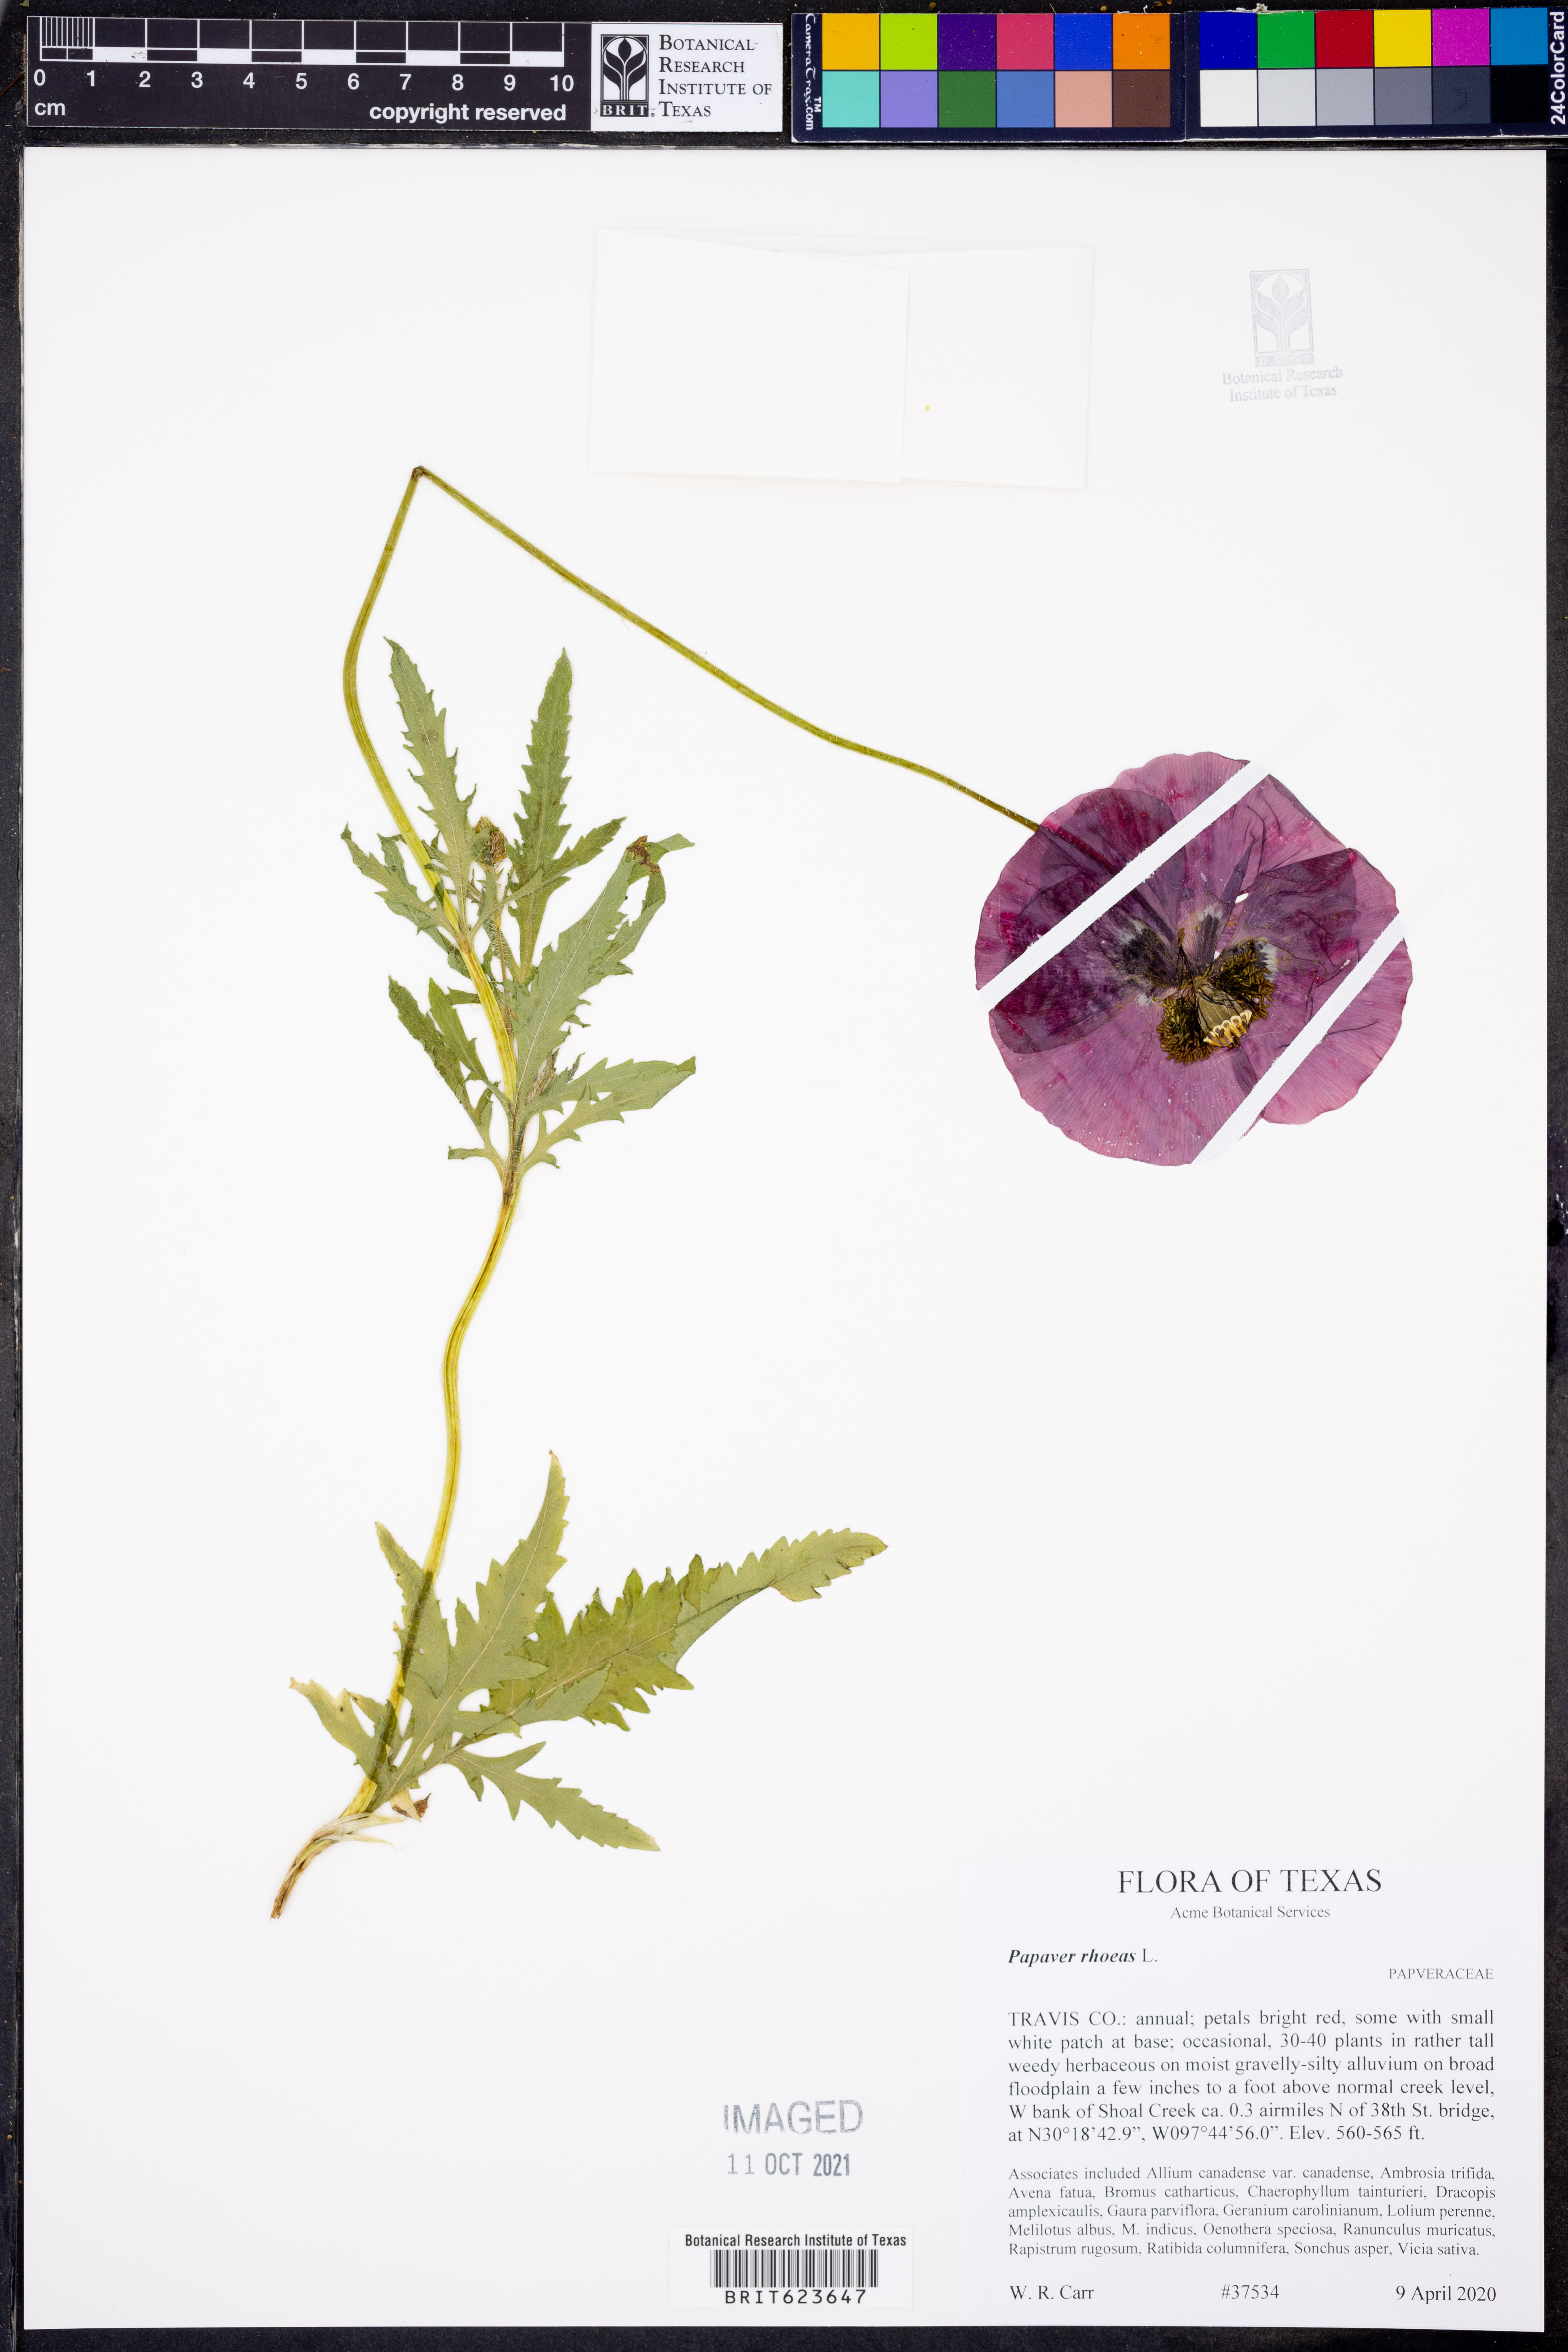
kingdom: Plantae
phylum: Tracheophyta
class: Magnoliopsida
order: Ranunculales
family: Papaveraceae
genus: Papaver
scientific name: Papaver rhoeas
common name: Corn poppy
